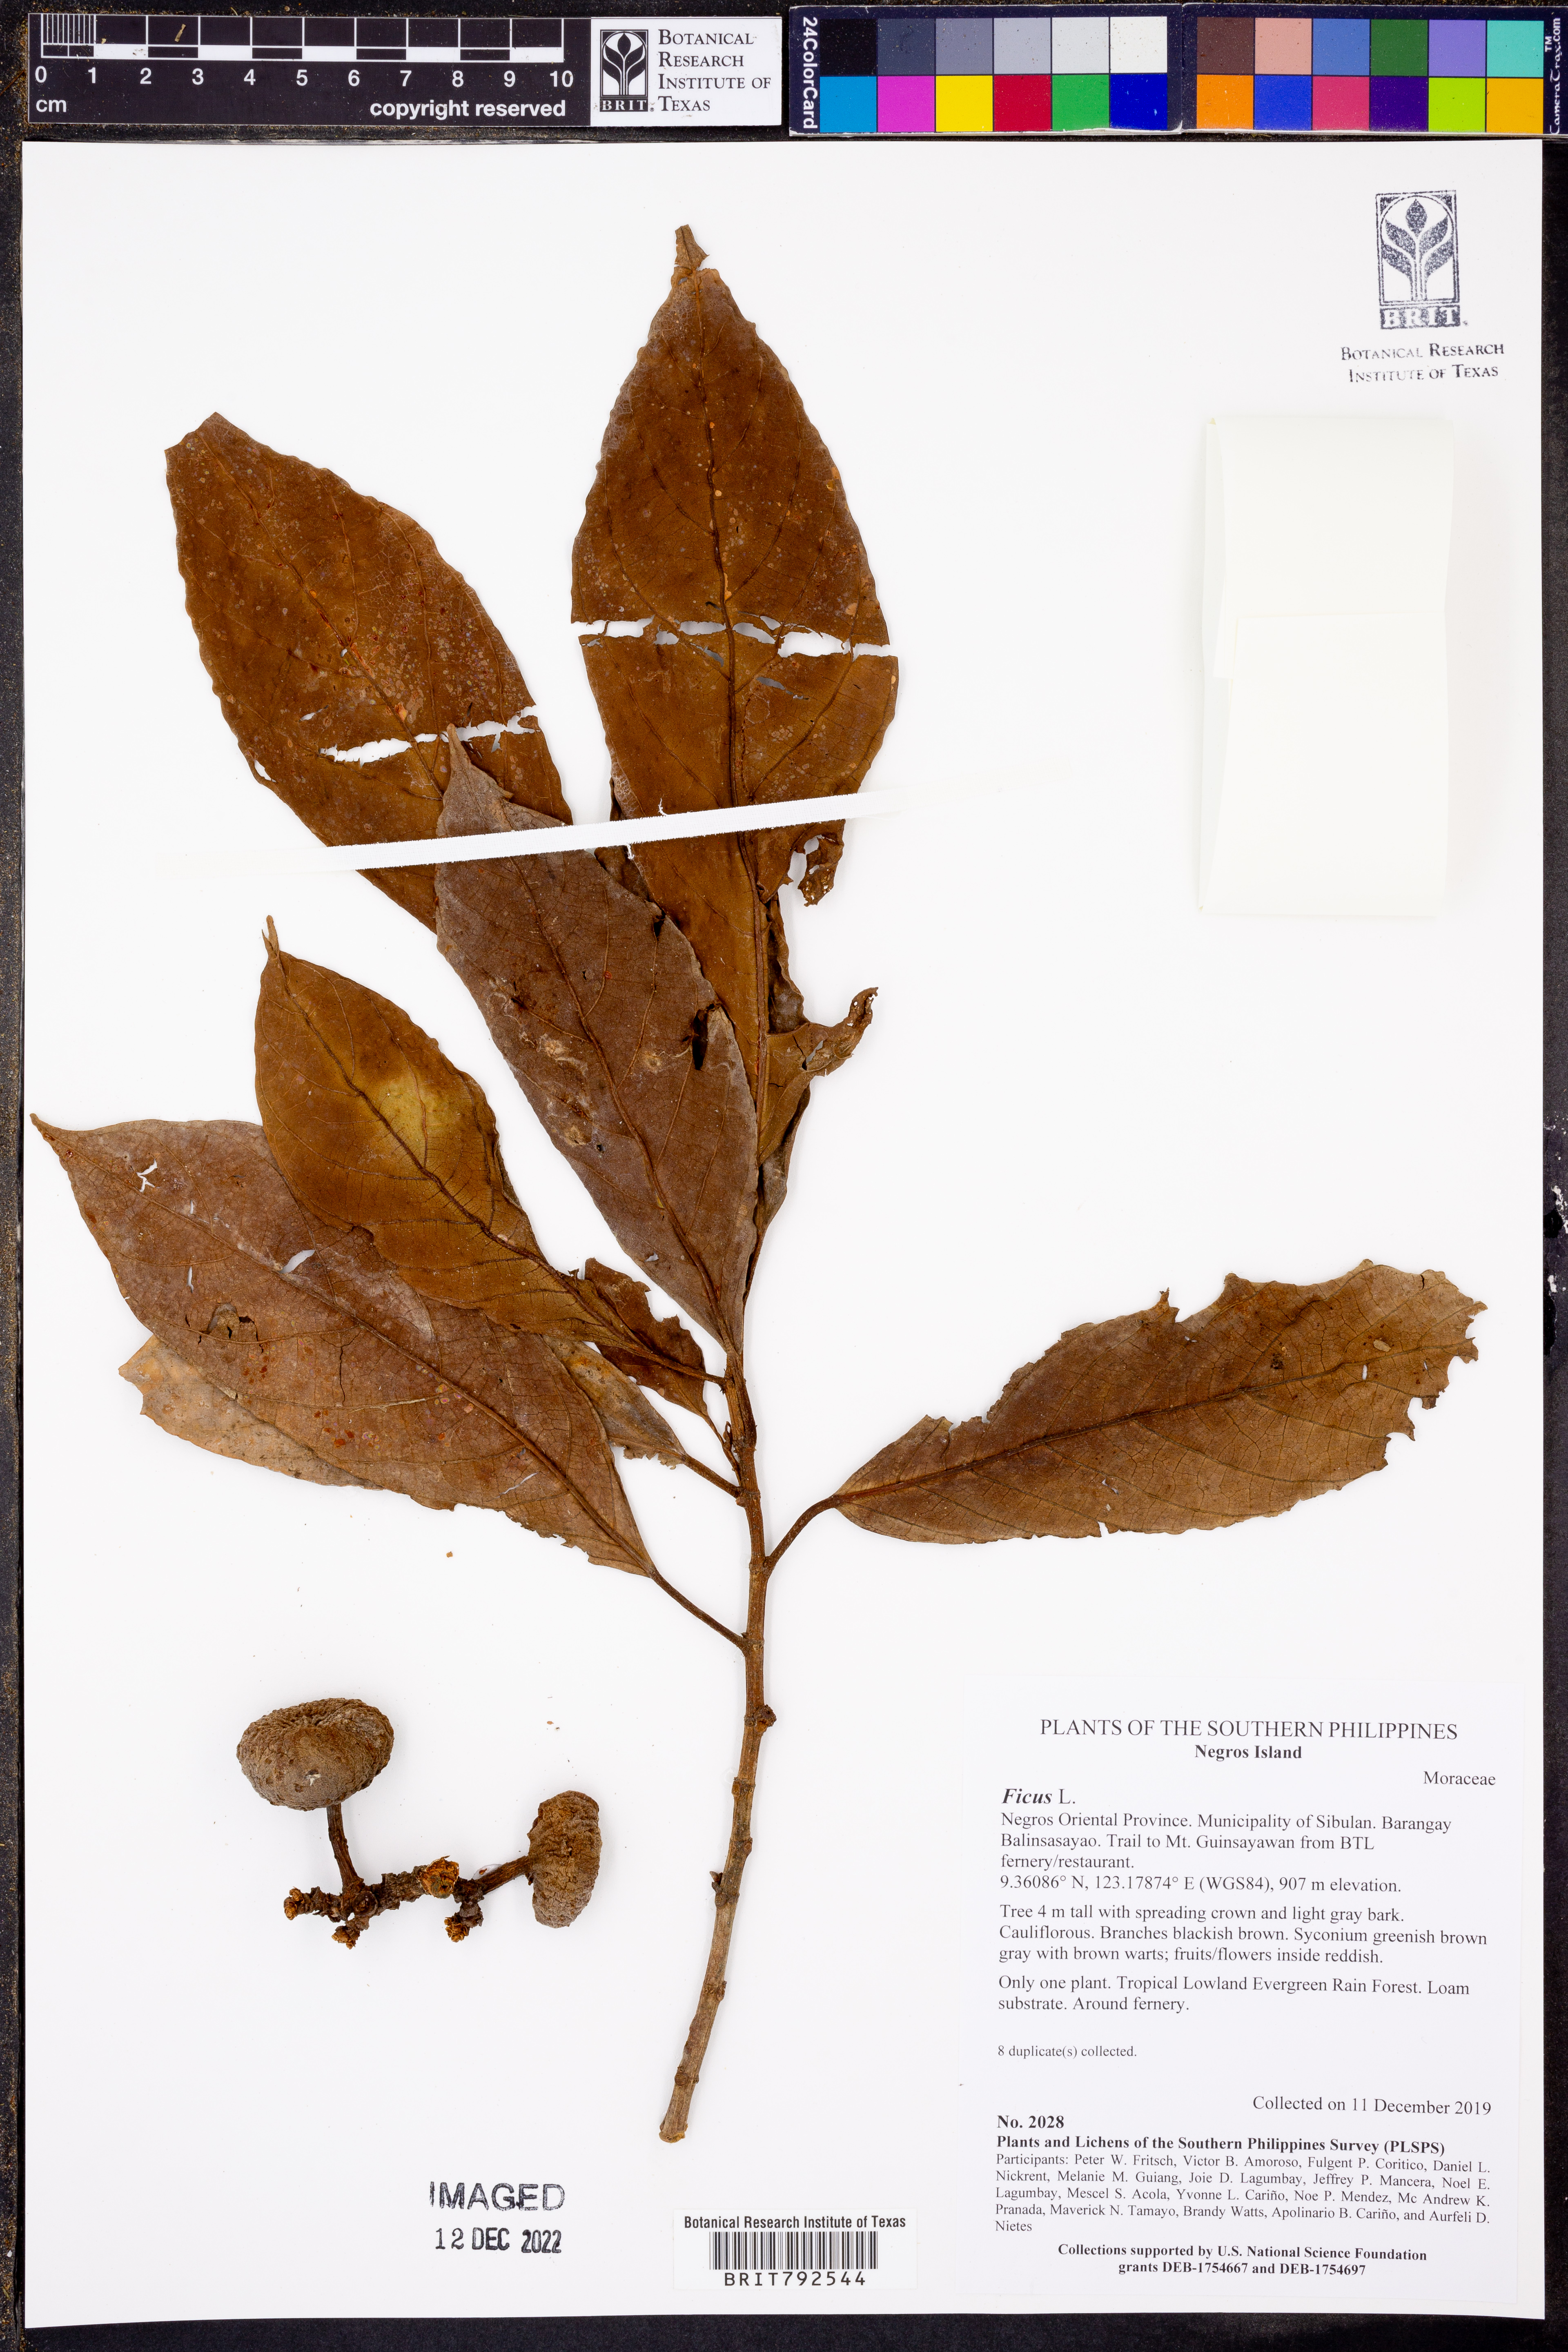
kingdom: Plantae
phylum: Tracheophyta
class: Magnoliopsida
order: Rosales
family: Moraceae
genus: Ficus
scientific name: Ficus
